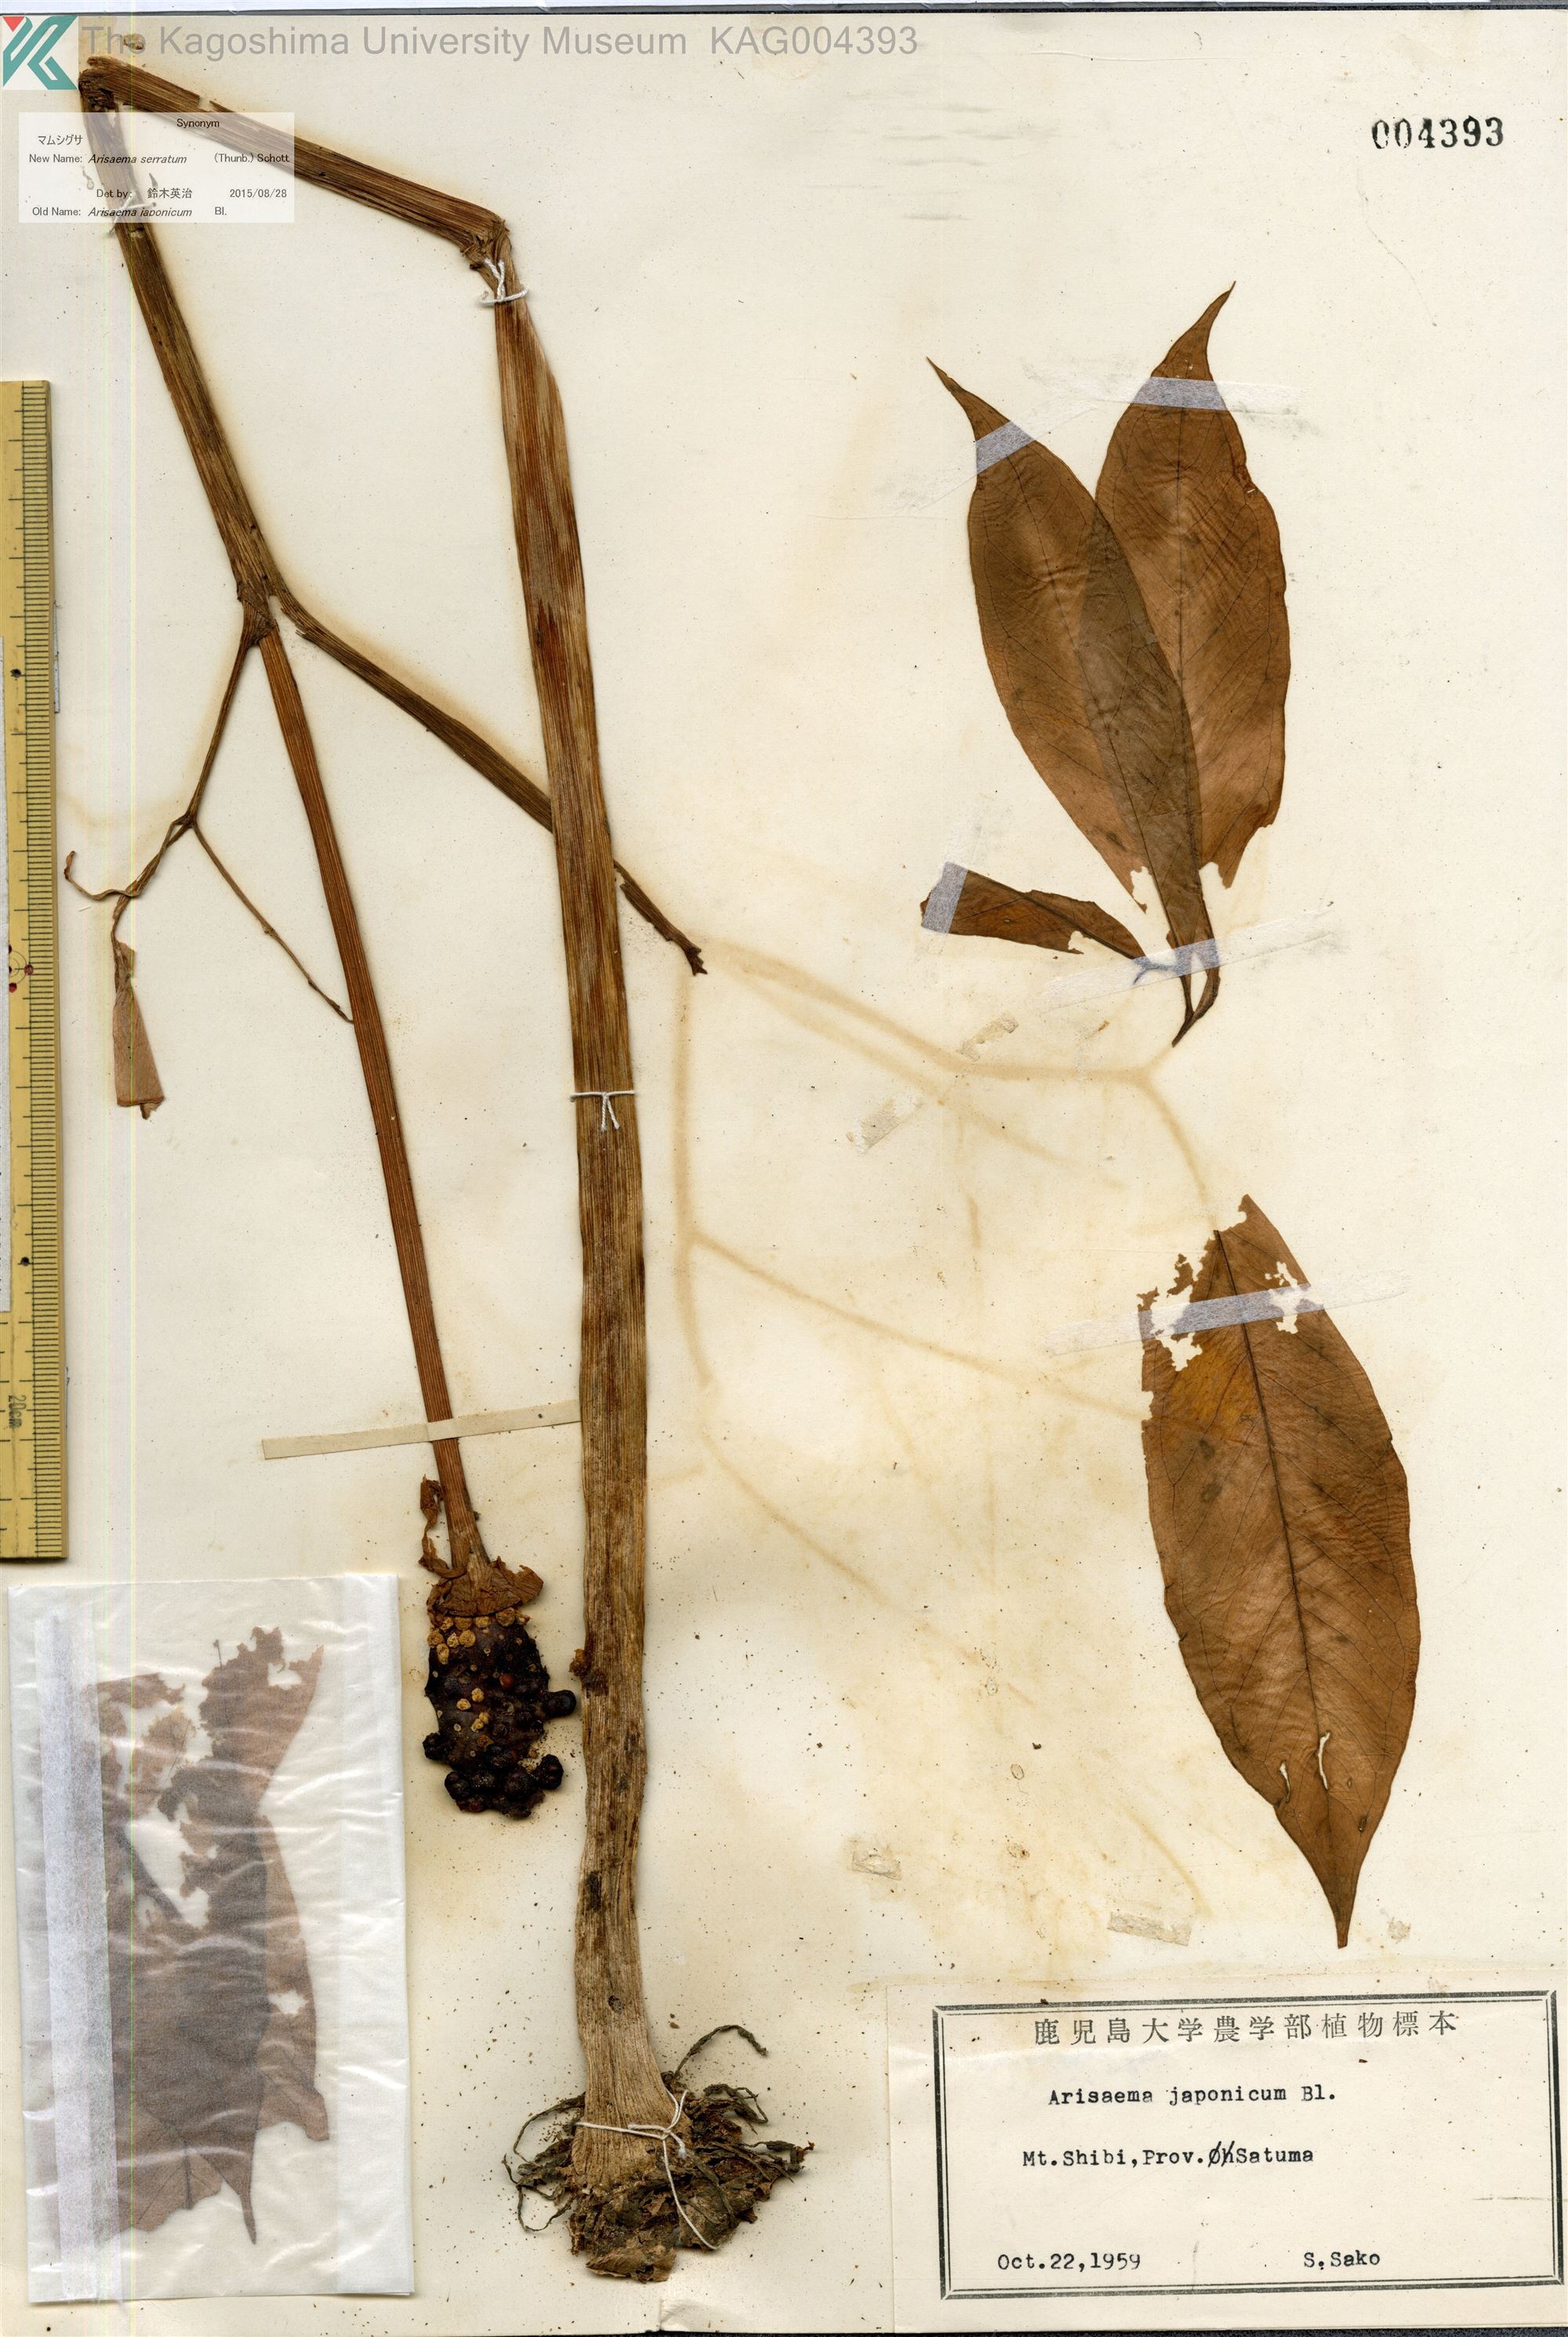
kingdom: Plantae
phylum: Tracheophyta
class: Liliopsida
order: Alismatales
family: Araceae
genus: Arisaema
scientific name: Arisaema serratum
